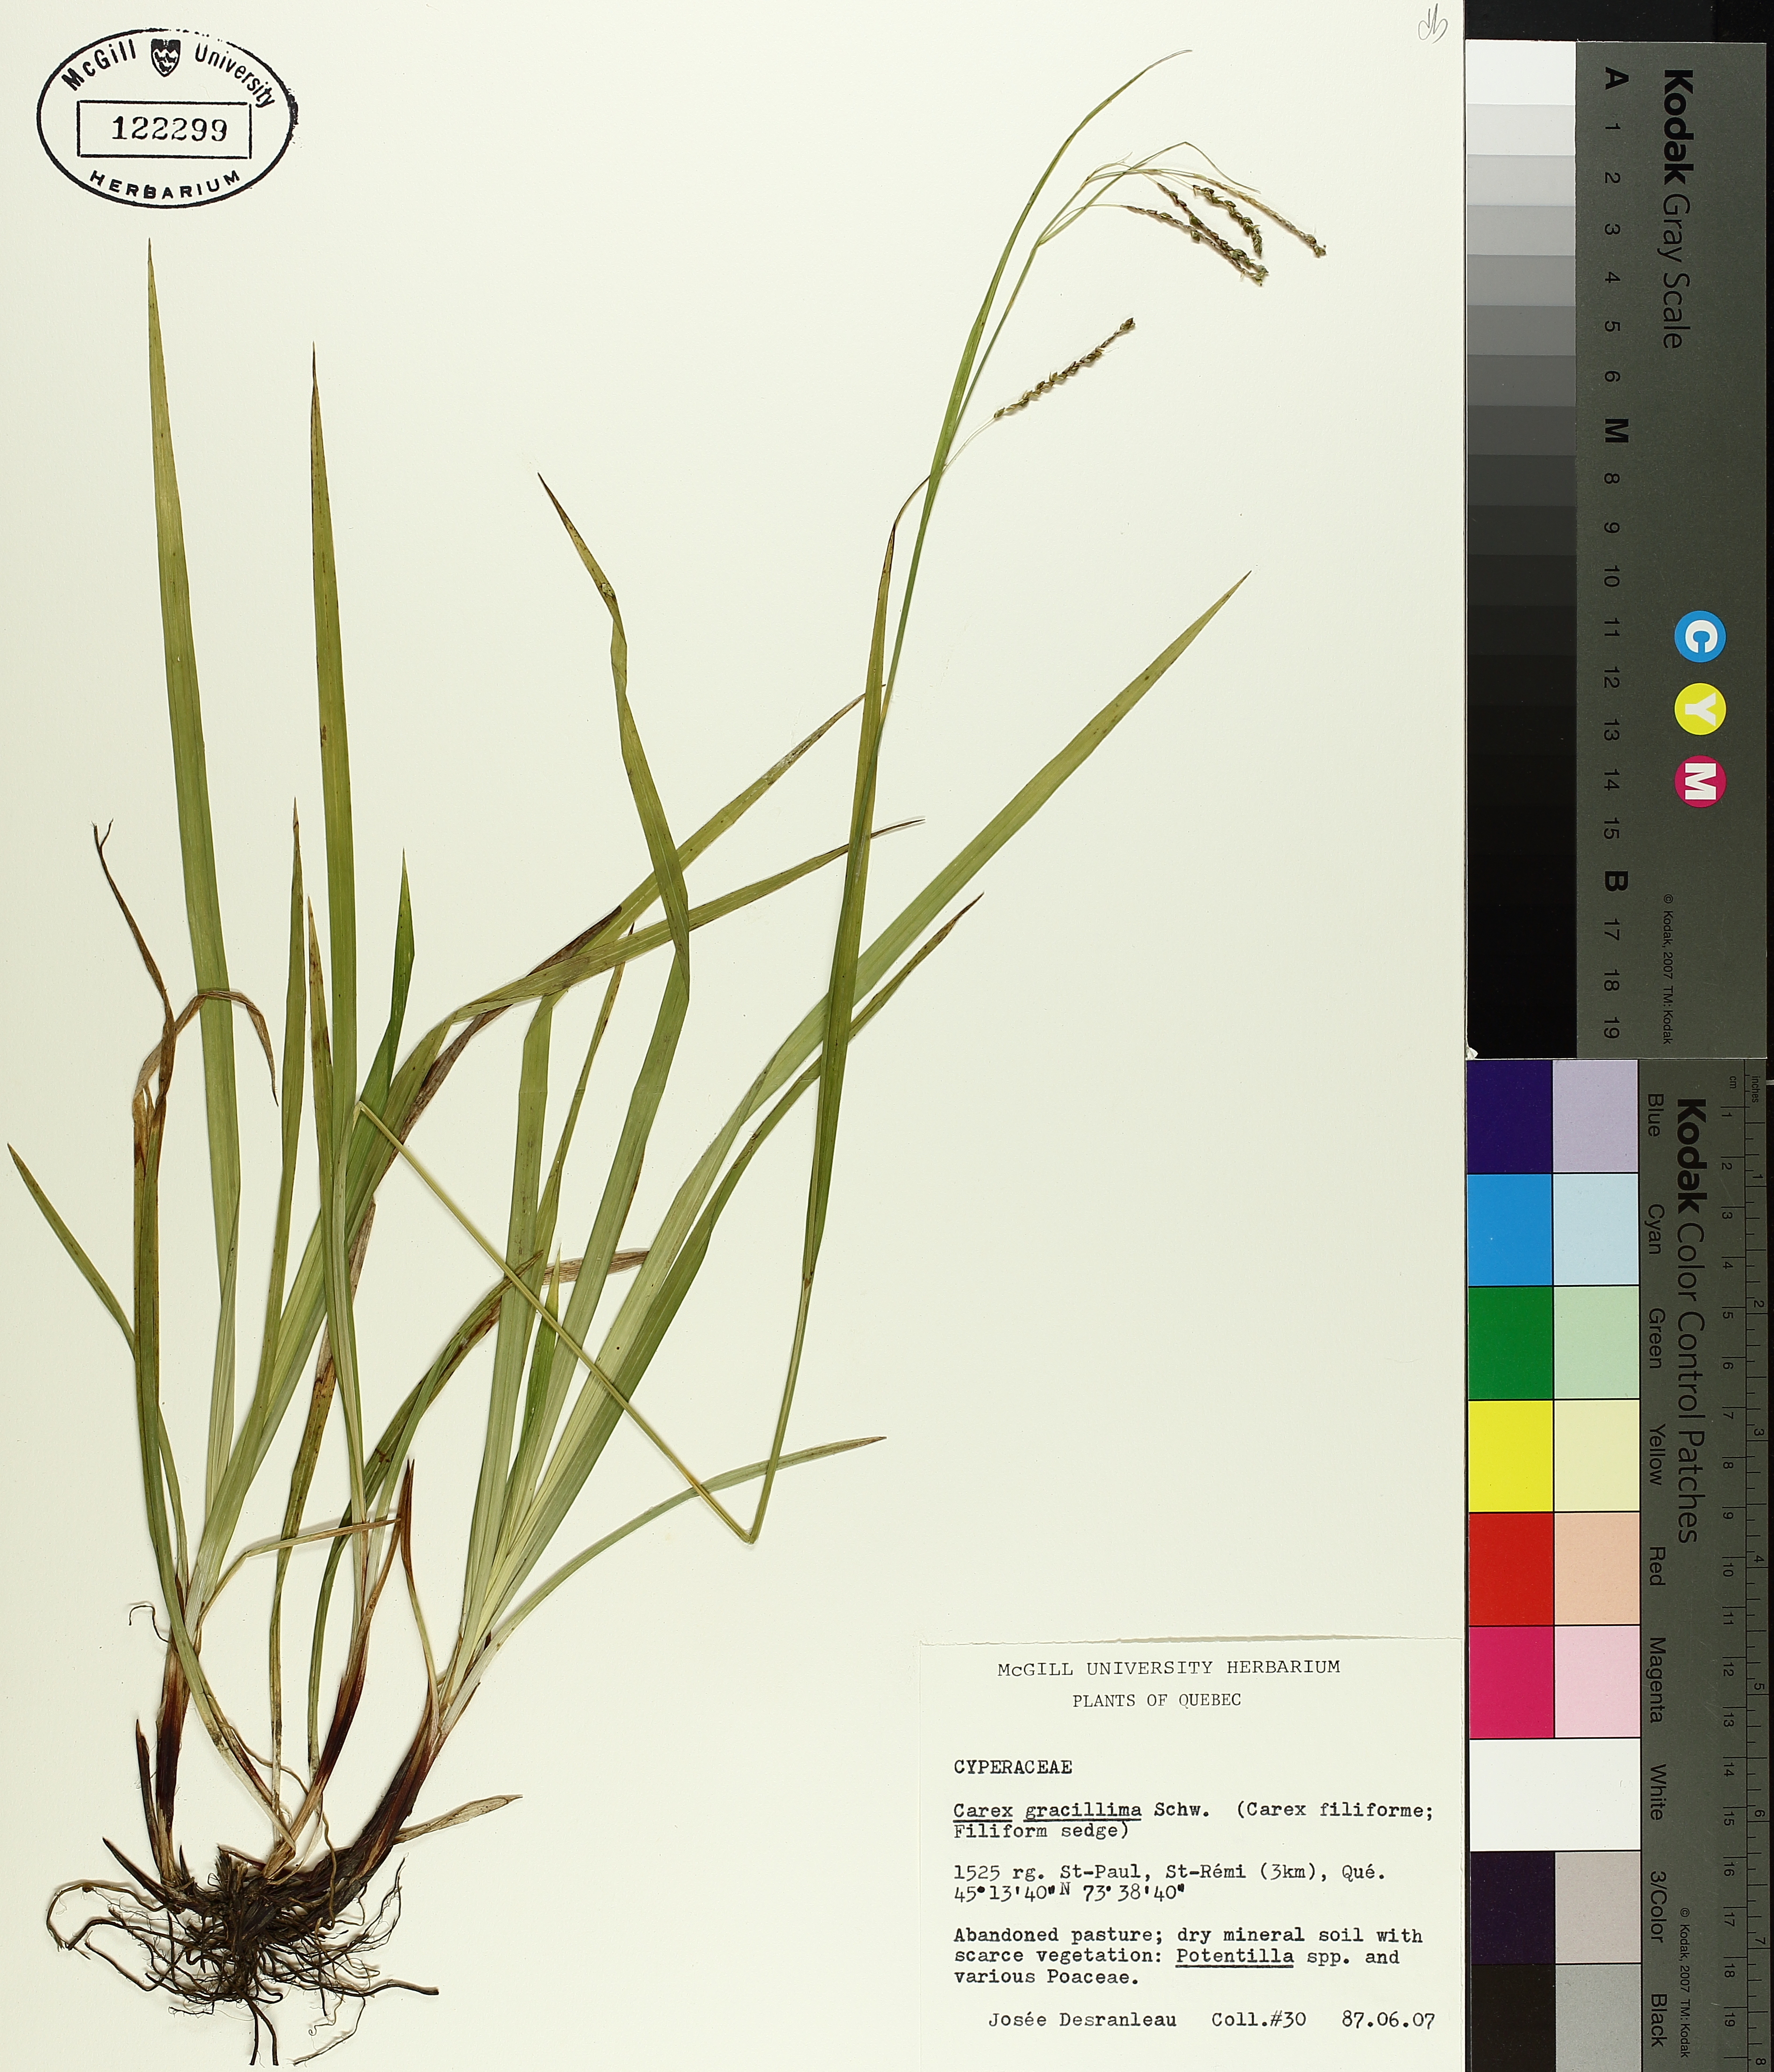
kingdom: Plantae
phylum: Tracheophyta
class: Liliopsida
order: Poales
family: Cyperaceae
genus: Carex
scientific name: Carex gracillima
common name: Graceful sedge
